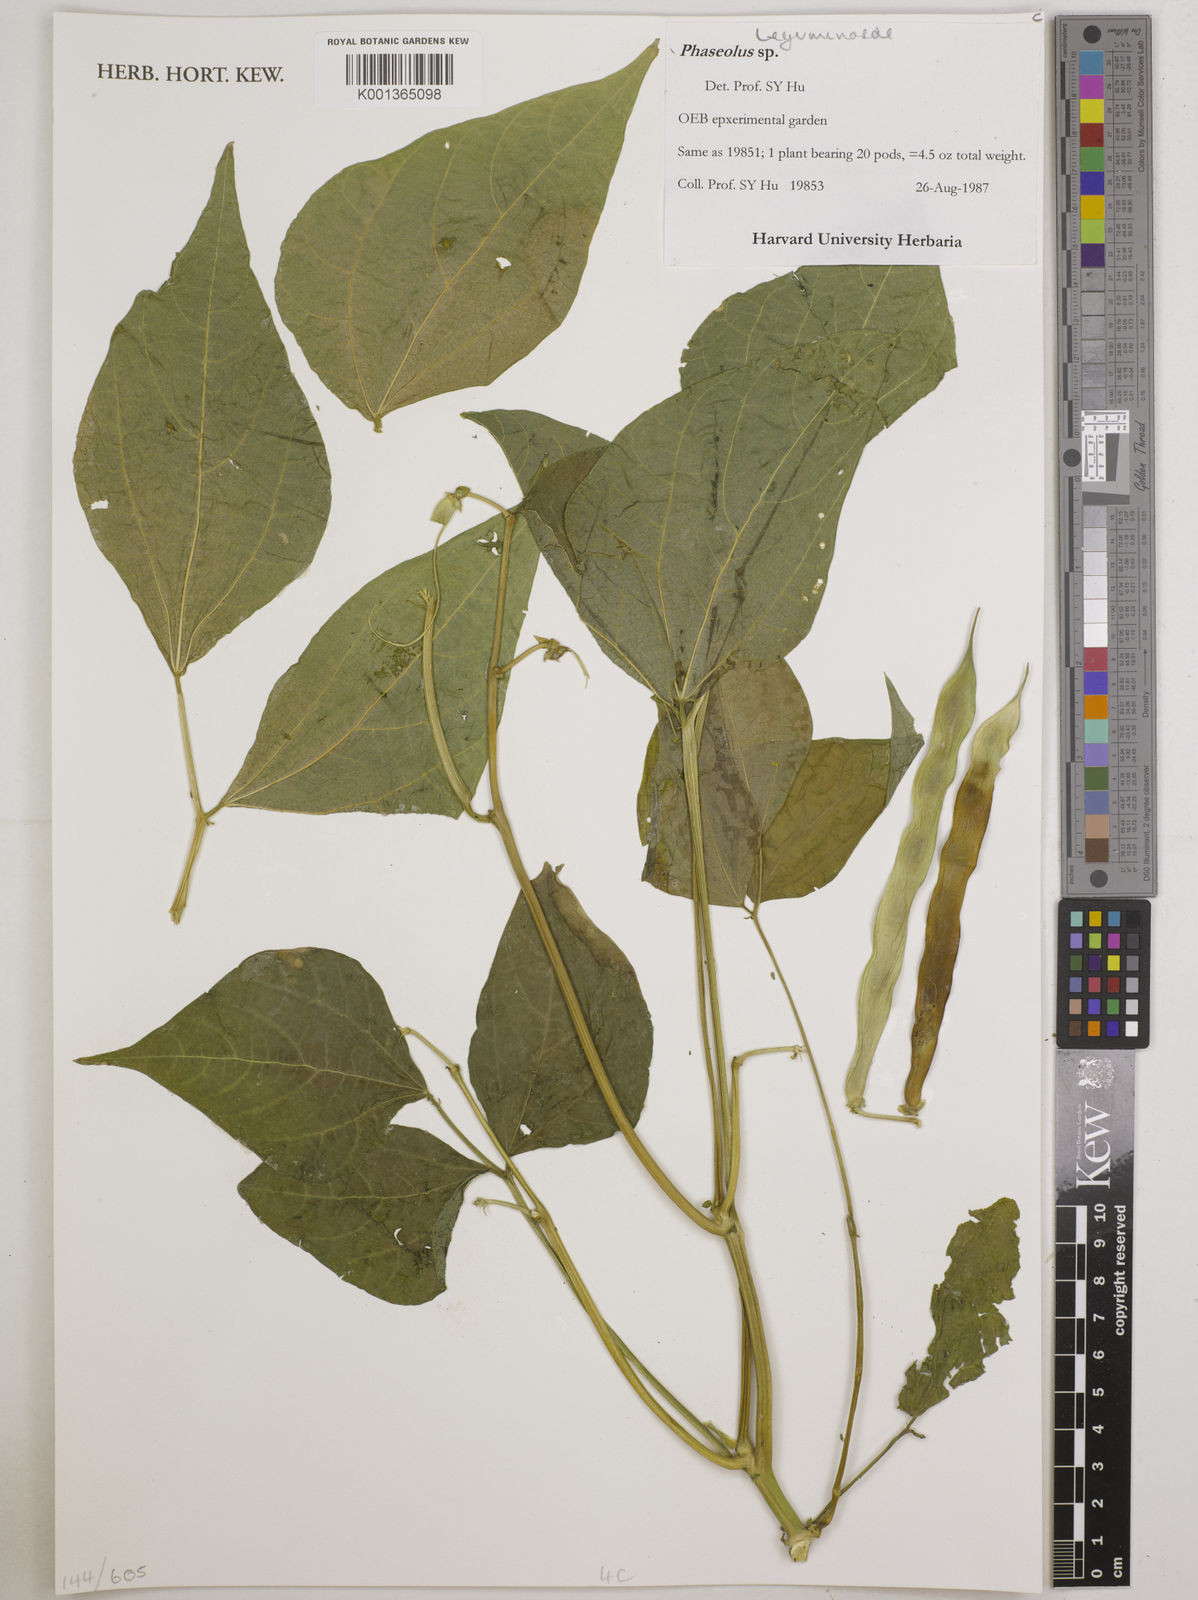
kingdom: Plantae
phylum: Tracheophyta
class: Magnoliopsida
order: Fabales
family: Fabaceae
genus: Phaseolus
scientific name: Phaseolus
